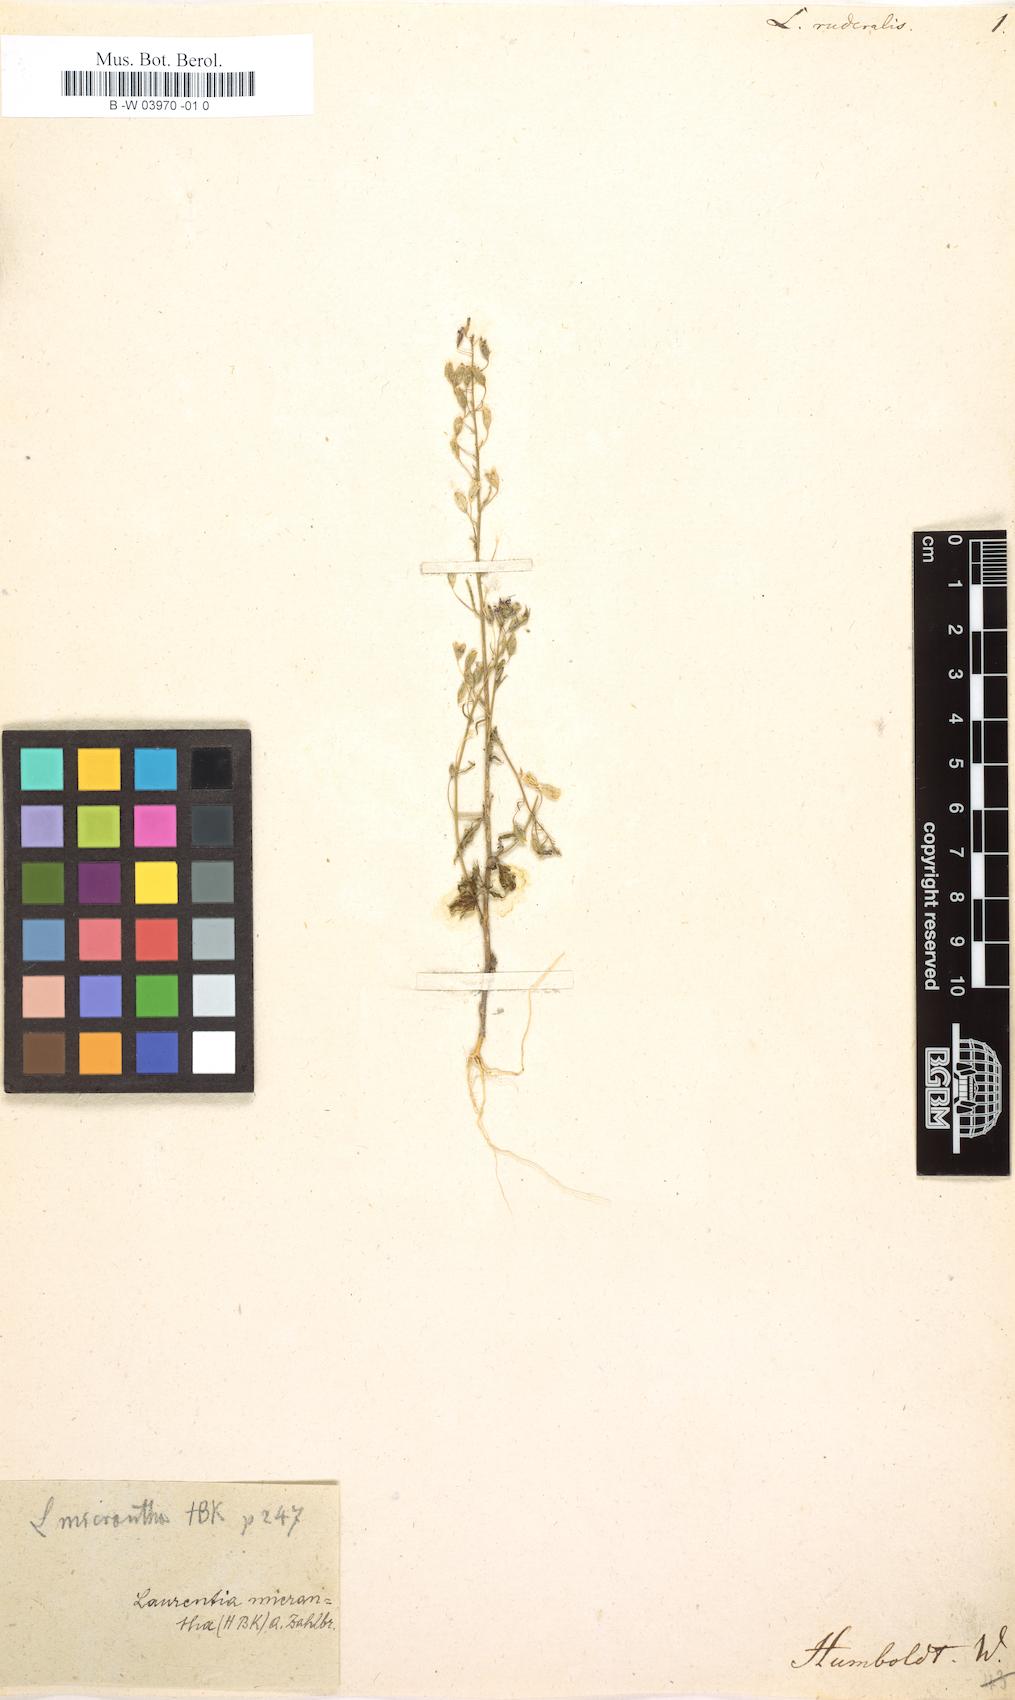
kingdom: Plantae
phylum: Tracheophyta
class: Magnoliopsida
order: Asterales
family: Campanulaceae
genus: Diastatea
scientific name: Diastatea micrantha
